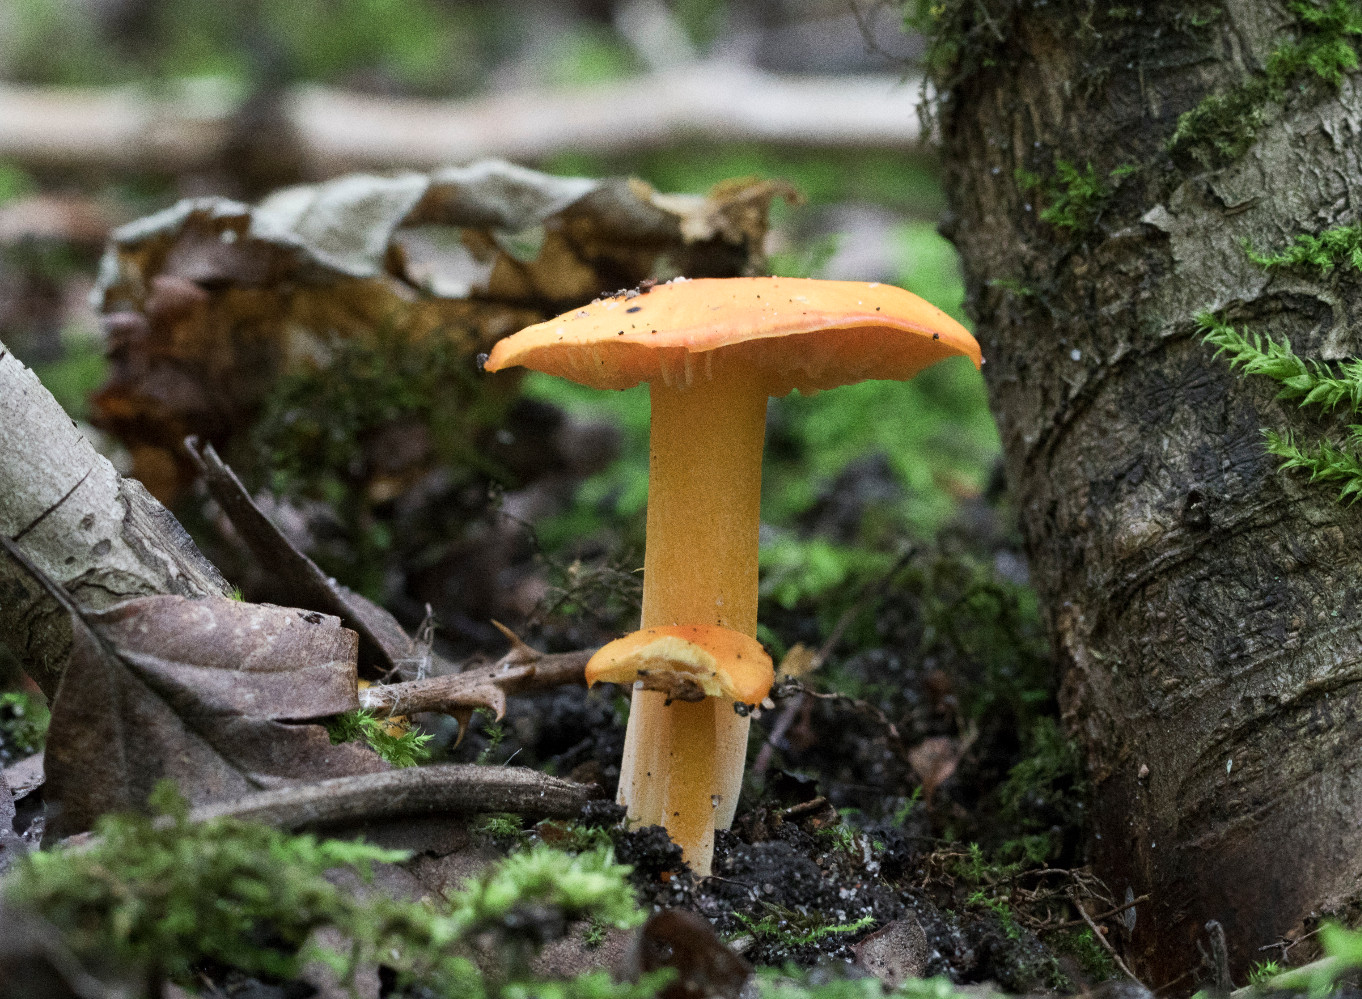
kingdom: Fungi
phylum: Basidiomycota
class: Agaricomycetes
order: Agaricales
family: Hygrophoraceae
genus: Hygrocybe
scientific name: Hygrocybe quieta
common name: tæge-vokshat
